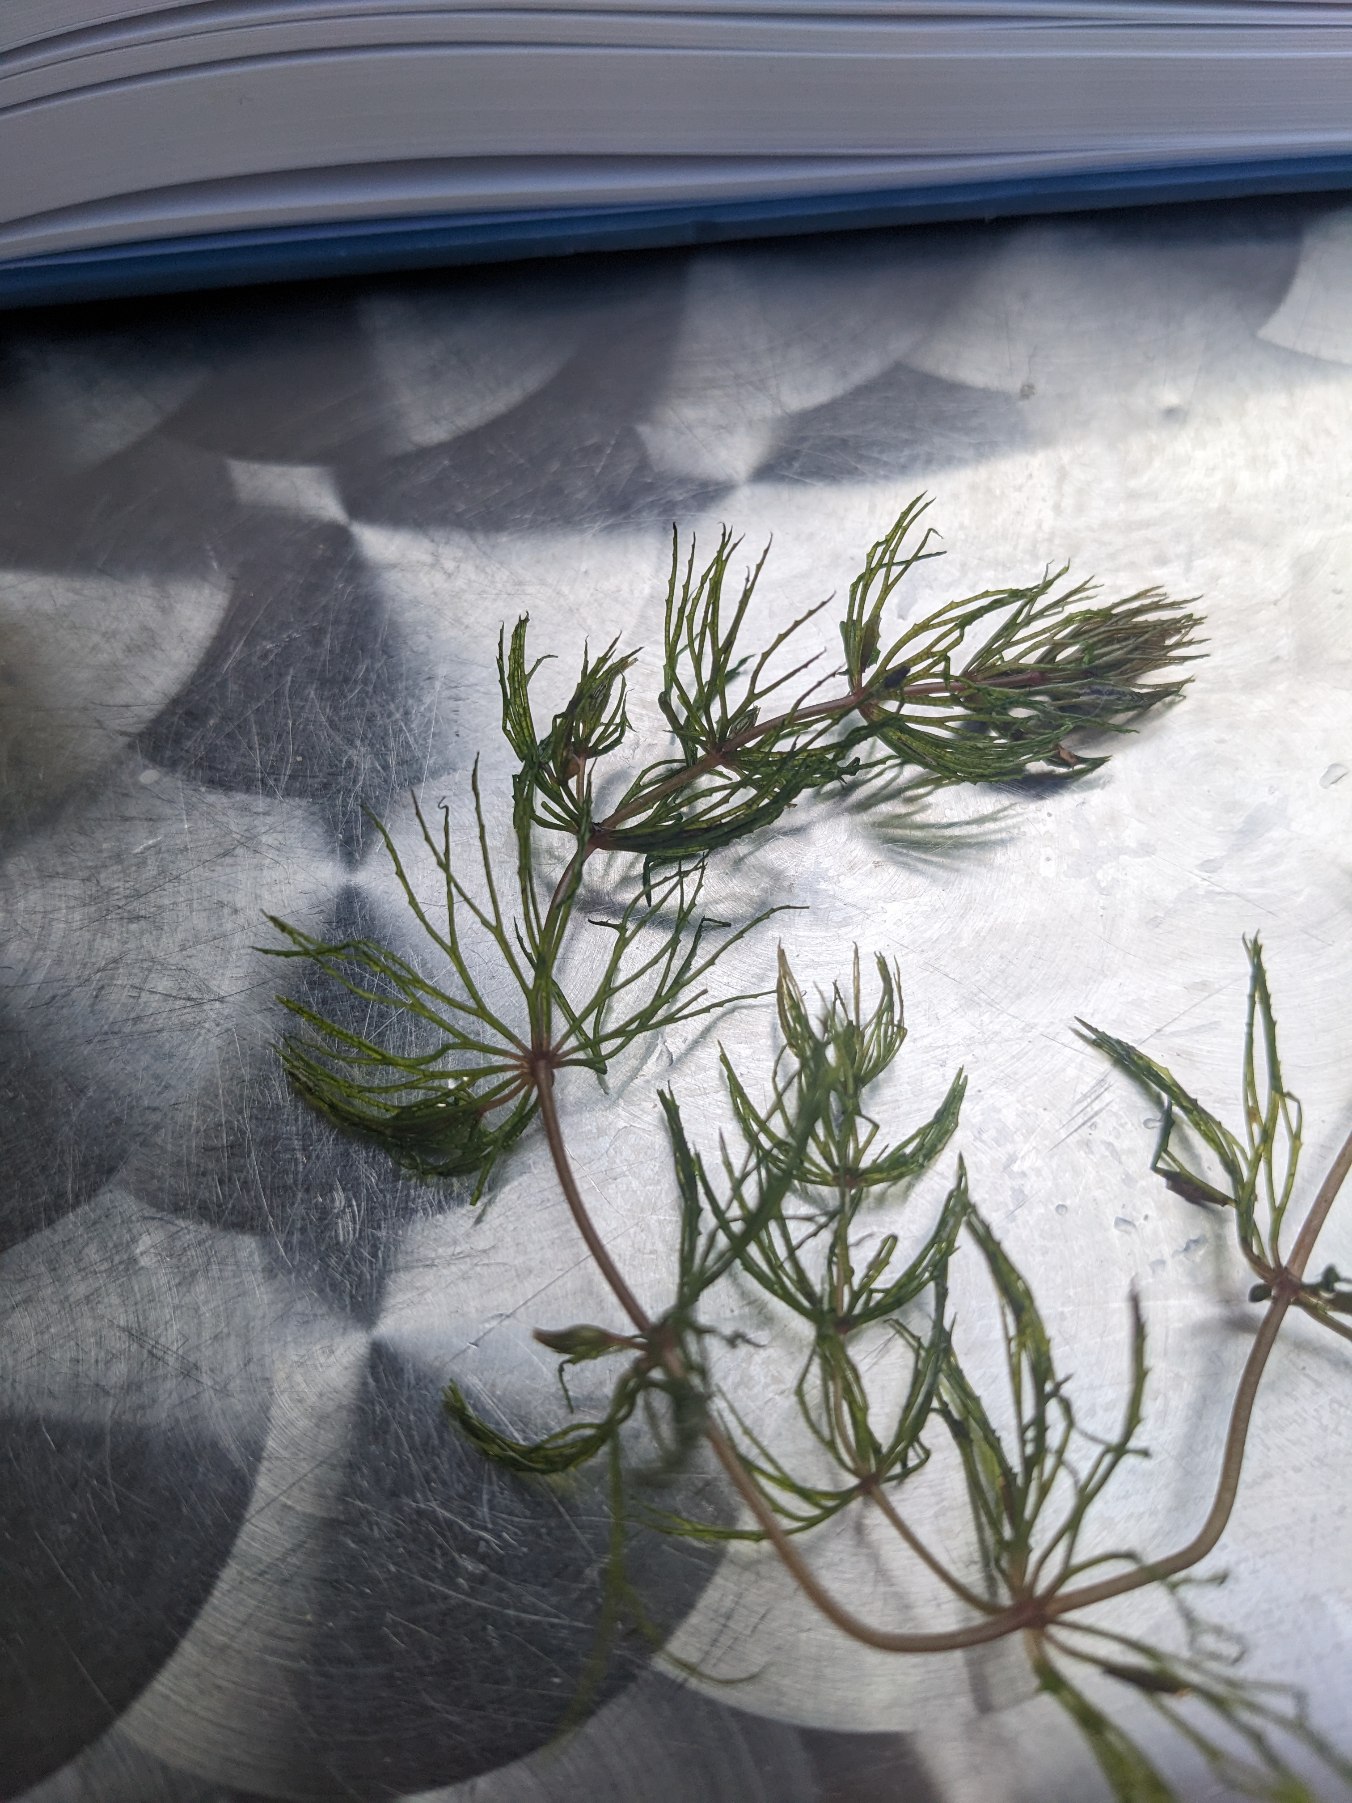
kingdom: Plantae
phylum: Tracheophyta
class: Magnoliopsida
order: Ceratophyllales
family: Ceratophyllaceae
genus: Ceratophyllum
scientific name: Ceratophyllum demersum
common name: Tornfrøet hornblad
